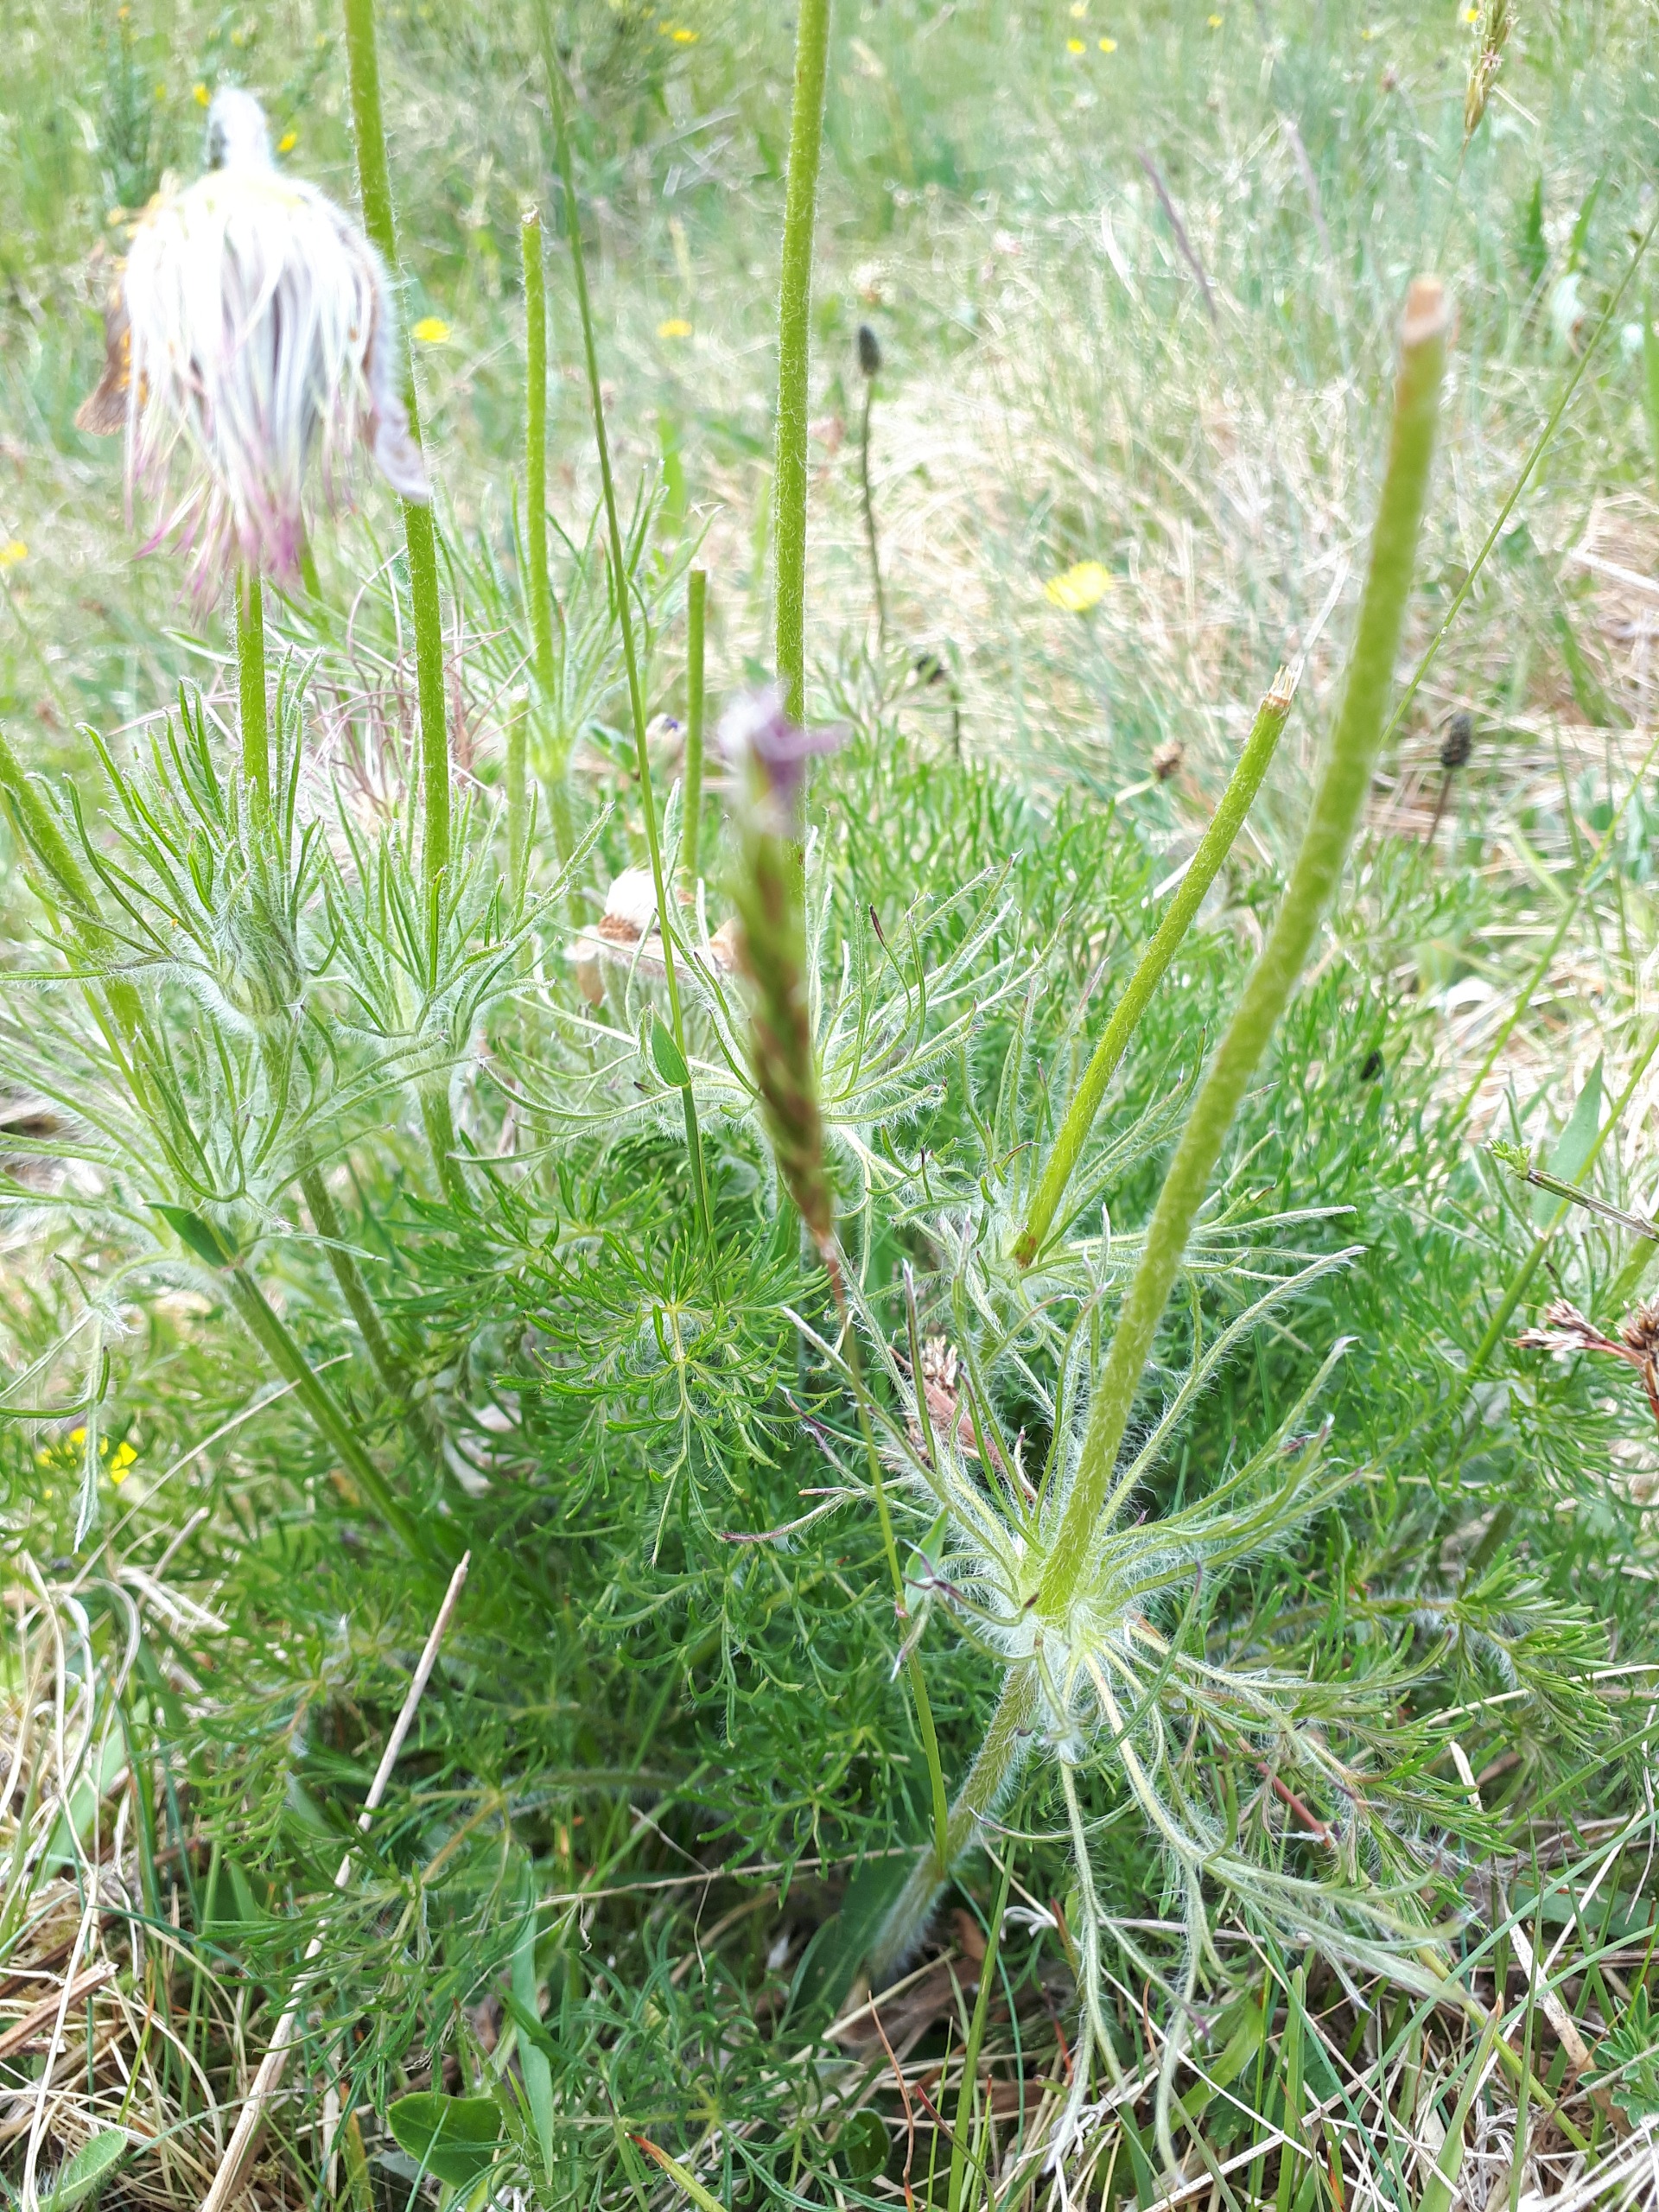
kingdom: Plantae
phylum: Tracheophyta
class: Magnoliopsida
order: Ranunculales
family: Ranunculaceae
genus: Pulsatilla
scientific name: Pulsatilla vulgaris
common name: Opret kobjælde
